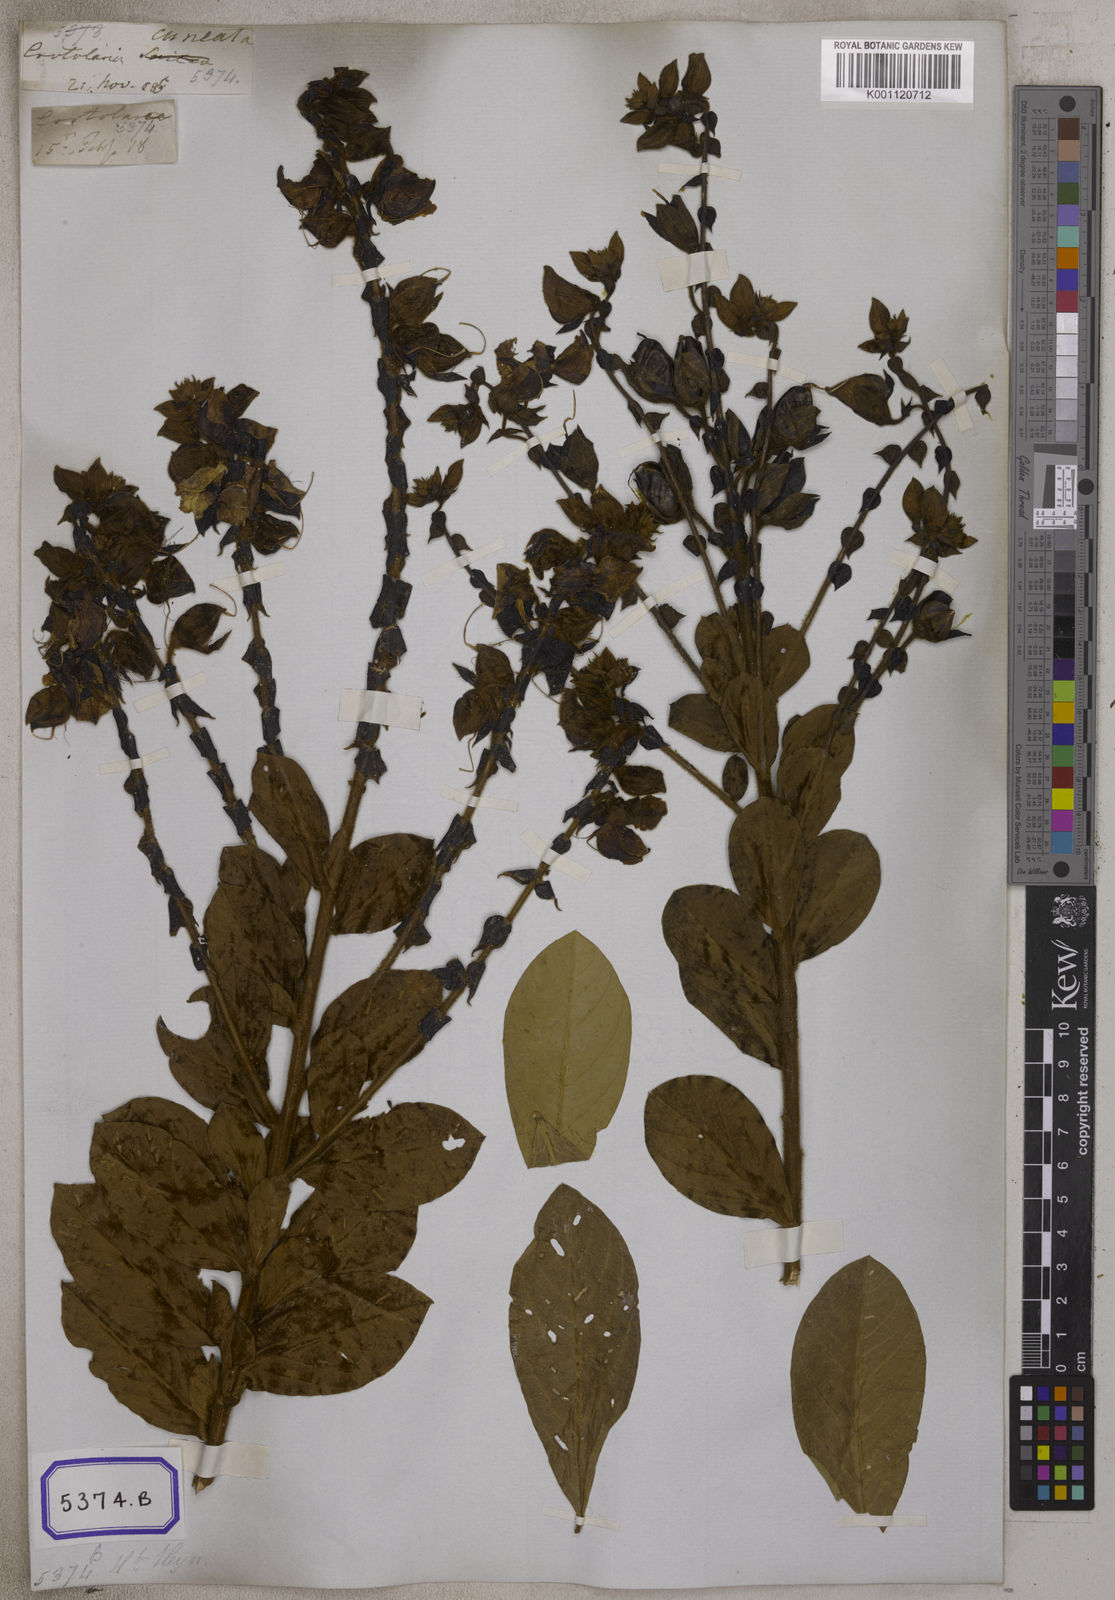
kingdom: Plantae
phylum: Tracheophyta
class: Magnoliopsida
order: Fabales
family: Fabaceae
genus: Crotalaria
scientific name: Crotalaria pulcherrima
